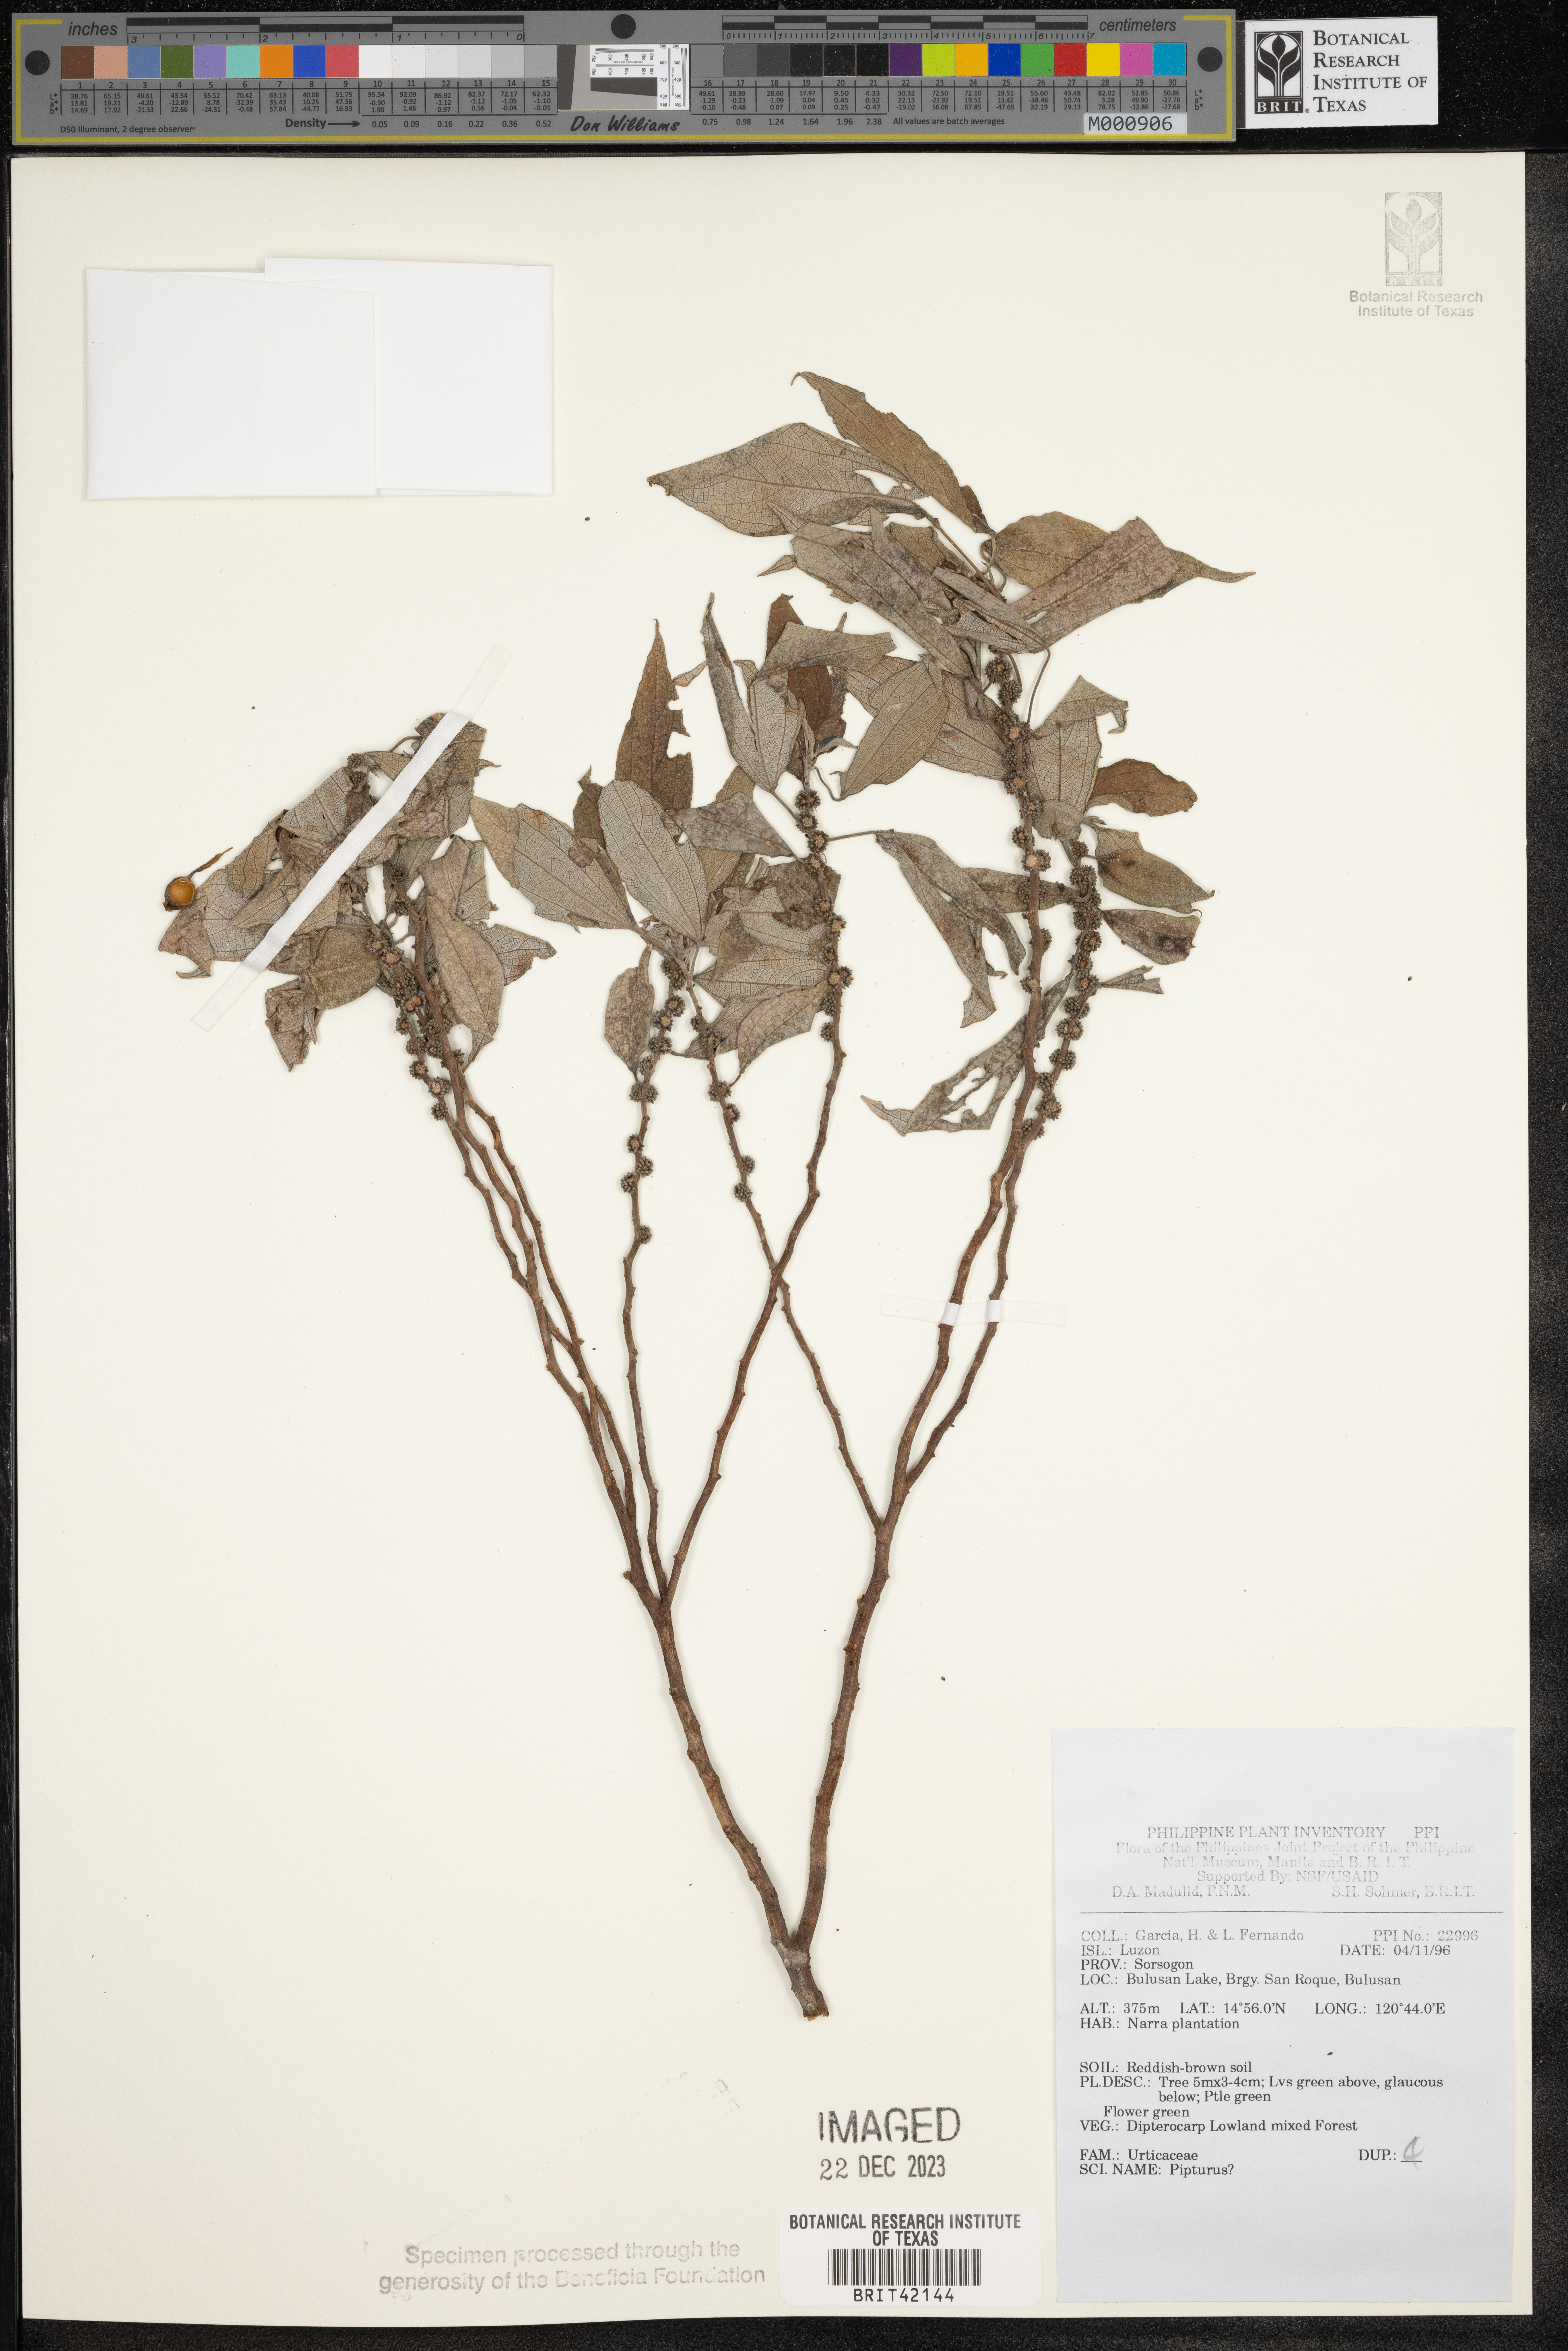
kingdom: Plantae
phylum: Tracheophyta
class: Magnoliopsida
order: Rosales
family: Urticaceae
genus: Pipturus
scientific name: Pipturus
